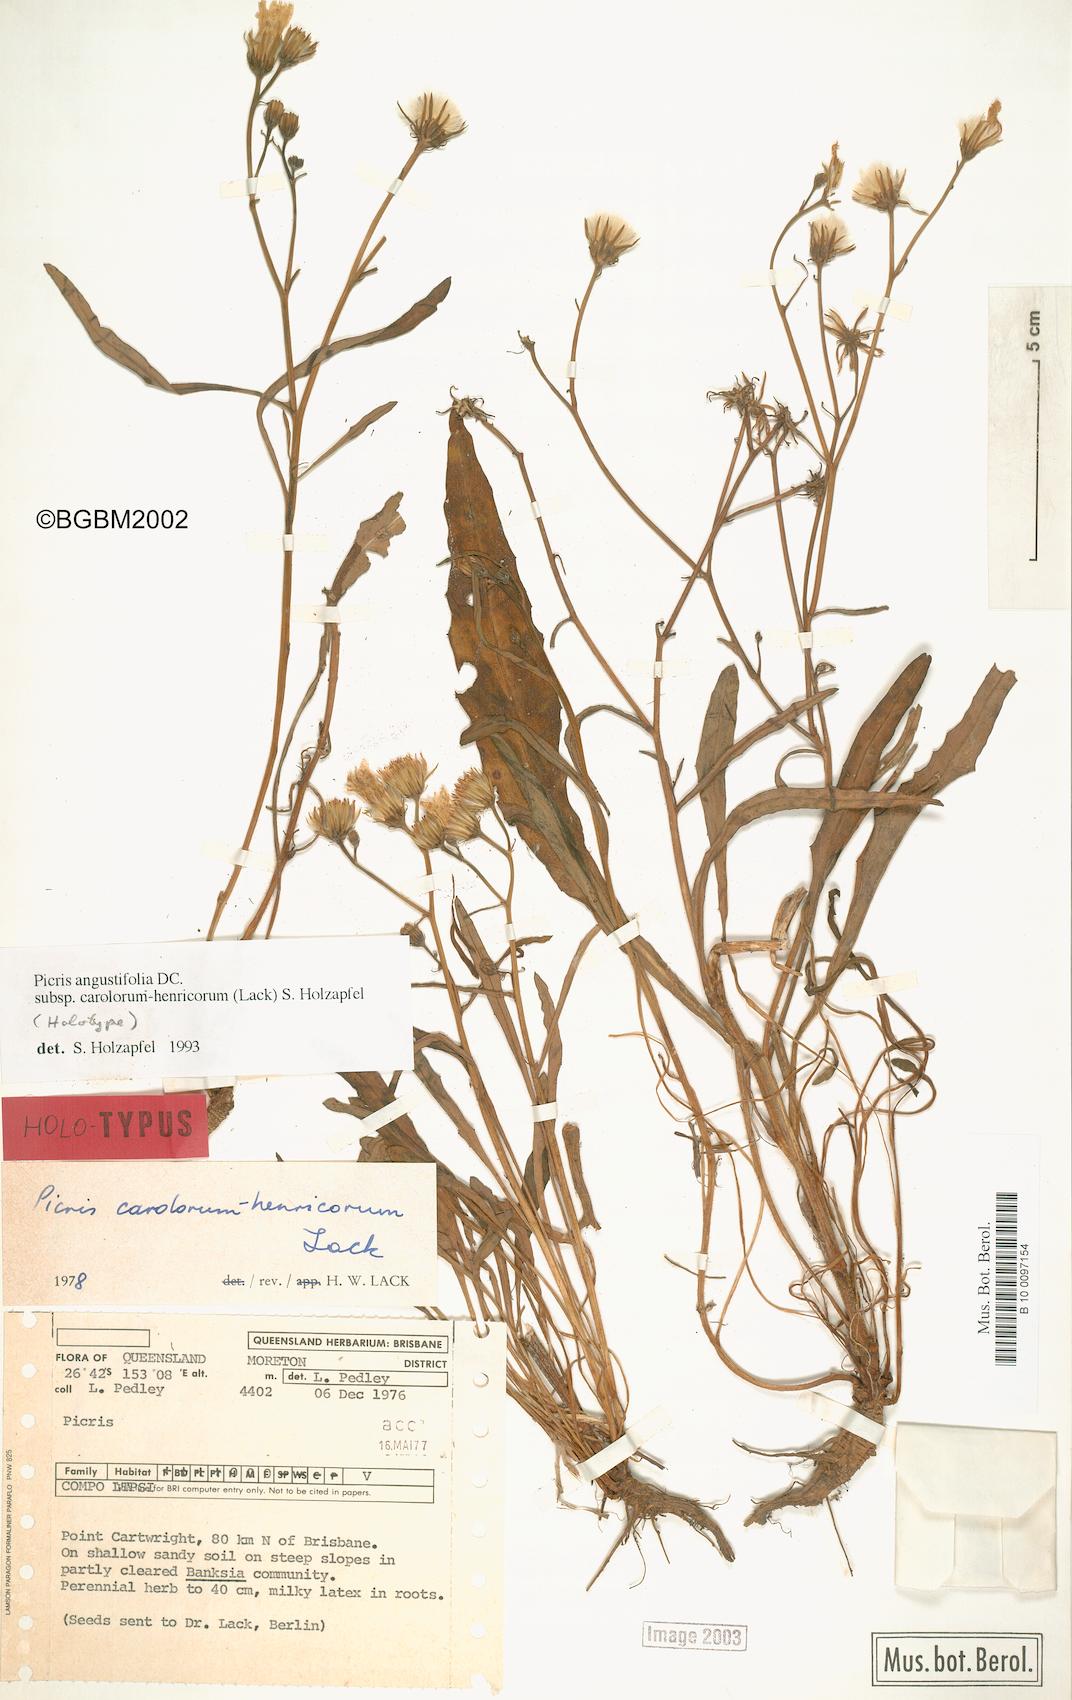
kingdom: Plantae
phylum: Tracheophyta
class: Magnoliopsida
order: Asterales
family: Asteraceae
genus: Picris
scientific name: Picris angustifolia
